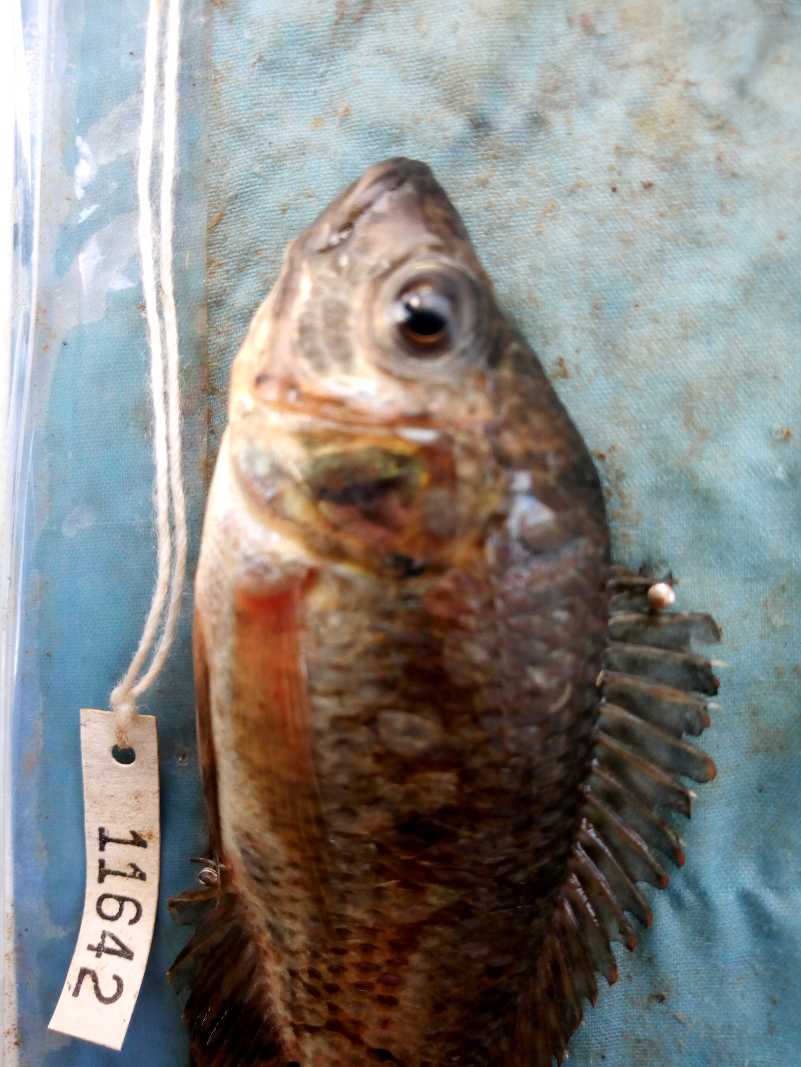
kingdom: Animalia
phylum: Chordata
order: Perciformes
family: Cichlidae
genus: Oreochromis
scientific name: Oreochromis spilurus
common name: Sabaki tilapia
